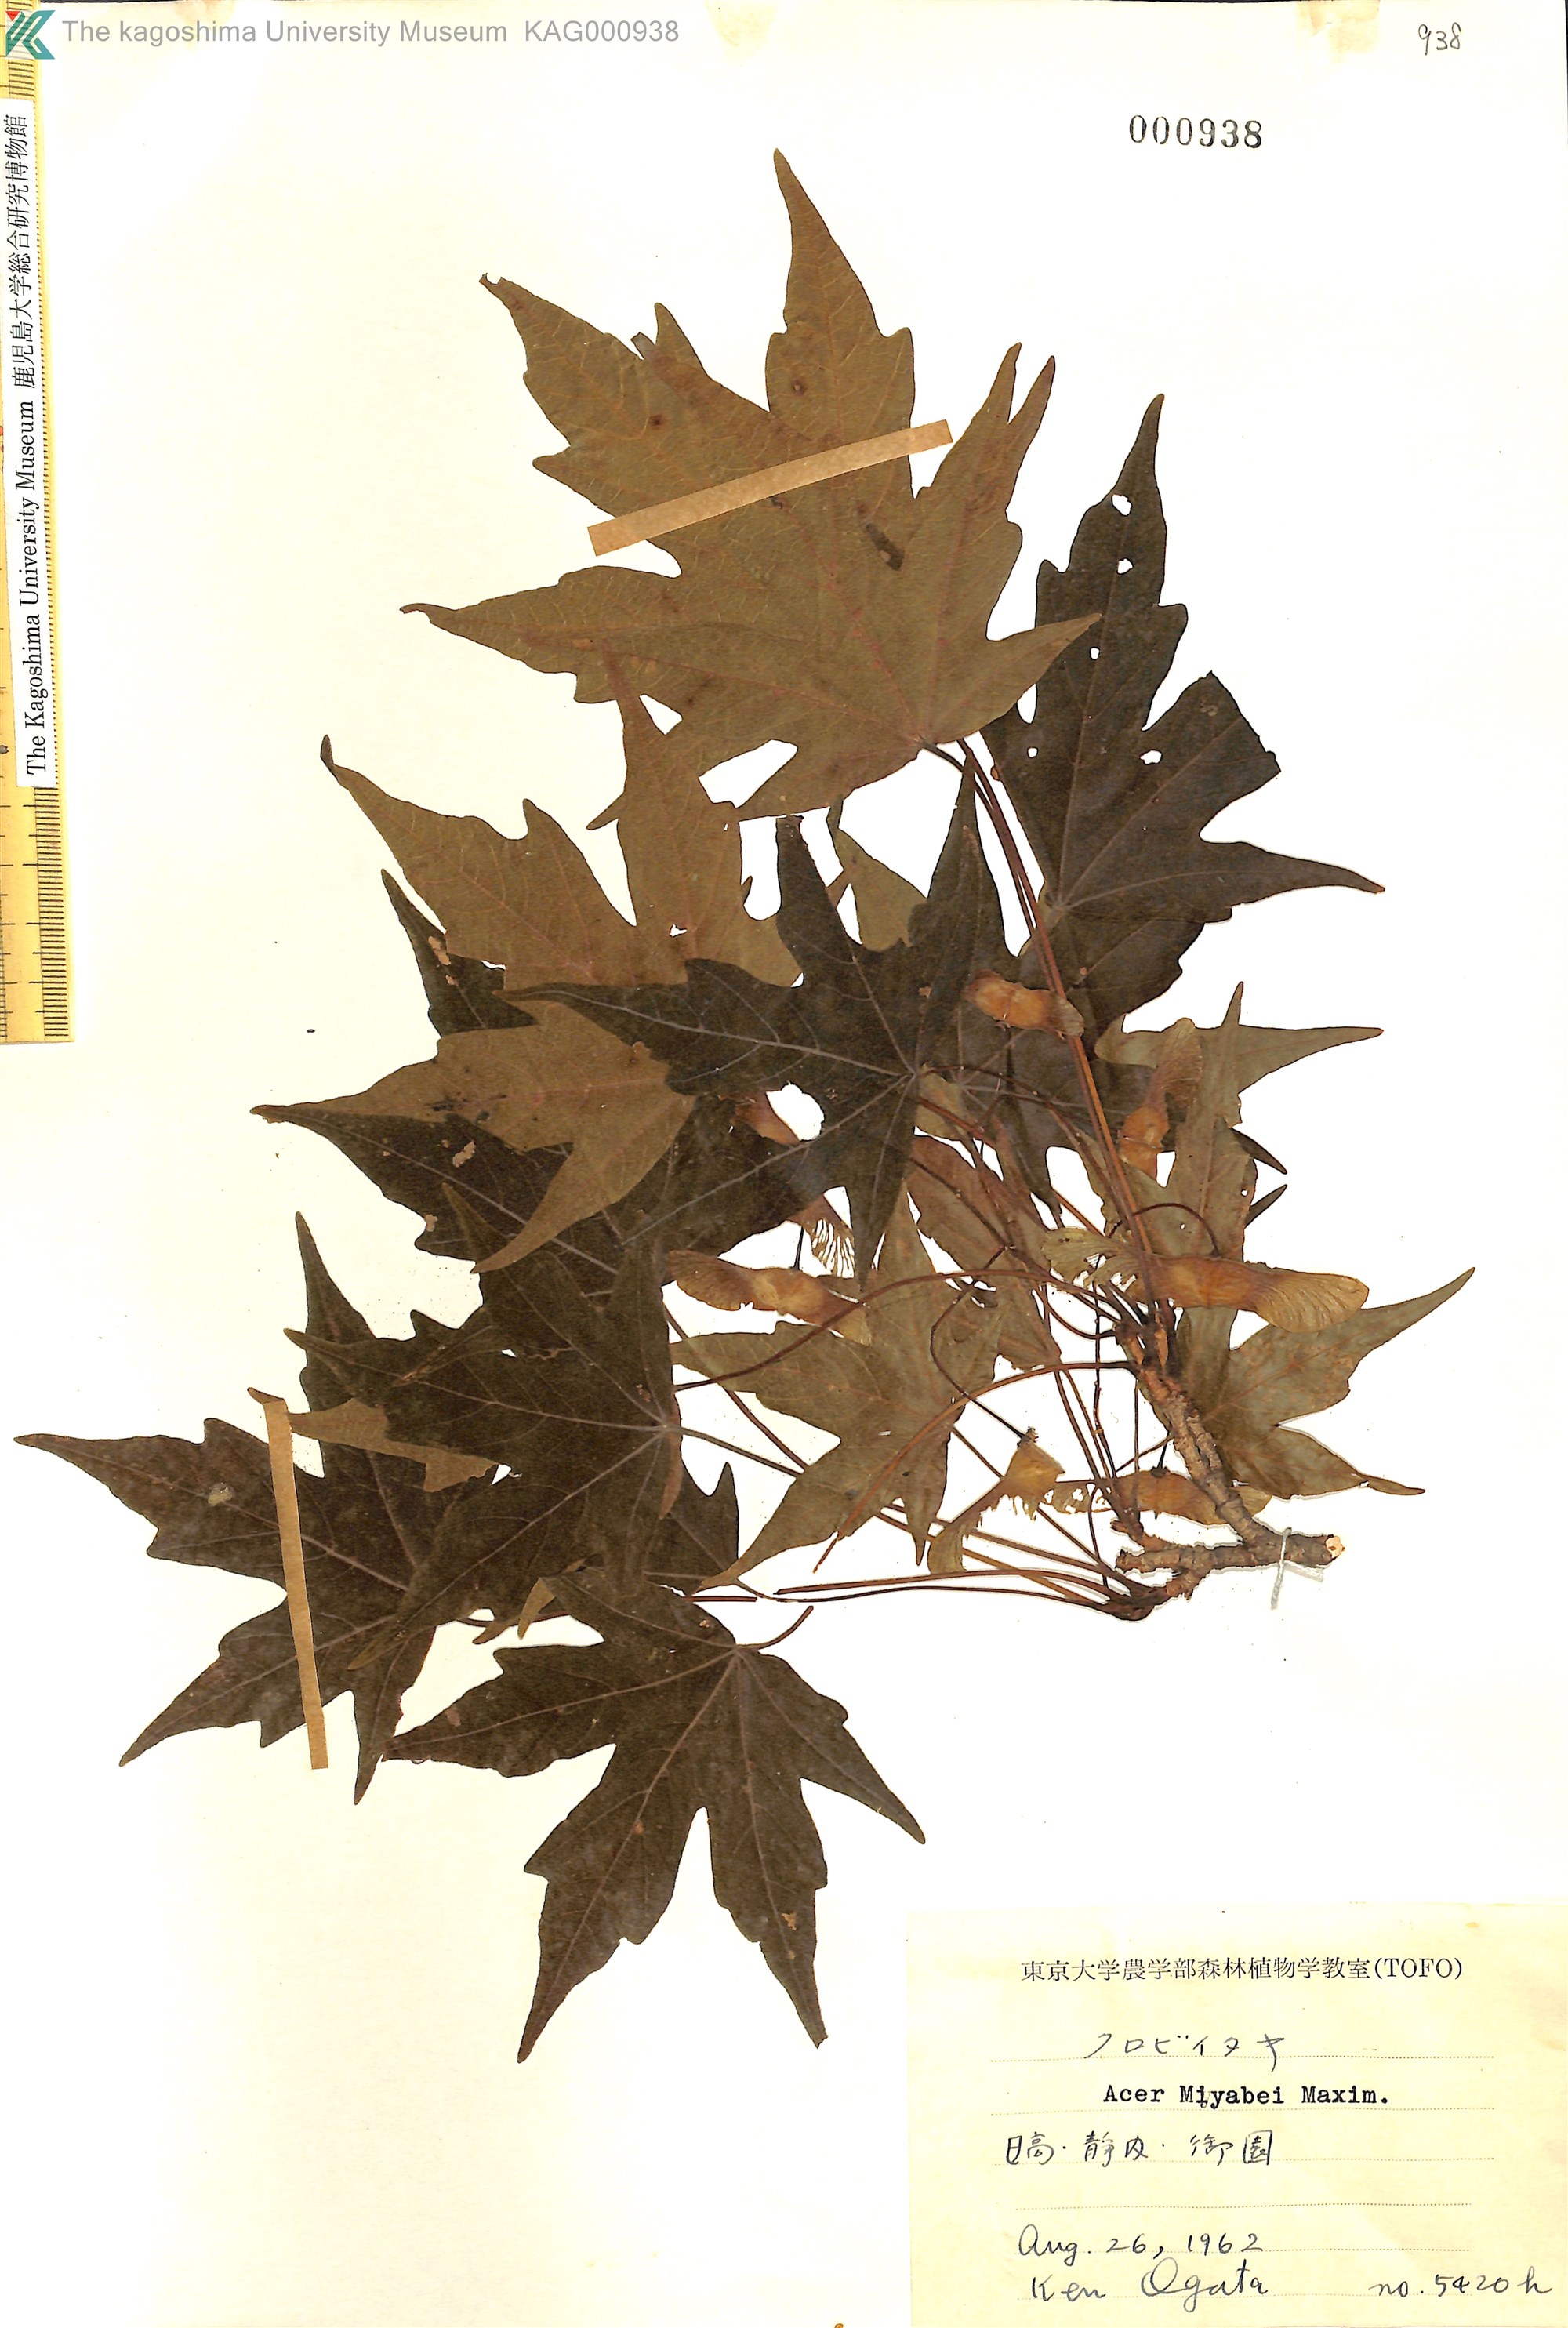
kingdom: Plantae
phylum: Tracheophyta
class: Magnoliopsida
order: Sapindales
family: Sapindaceae
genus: Acer
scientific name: Acer miyabei
